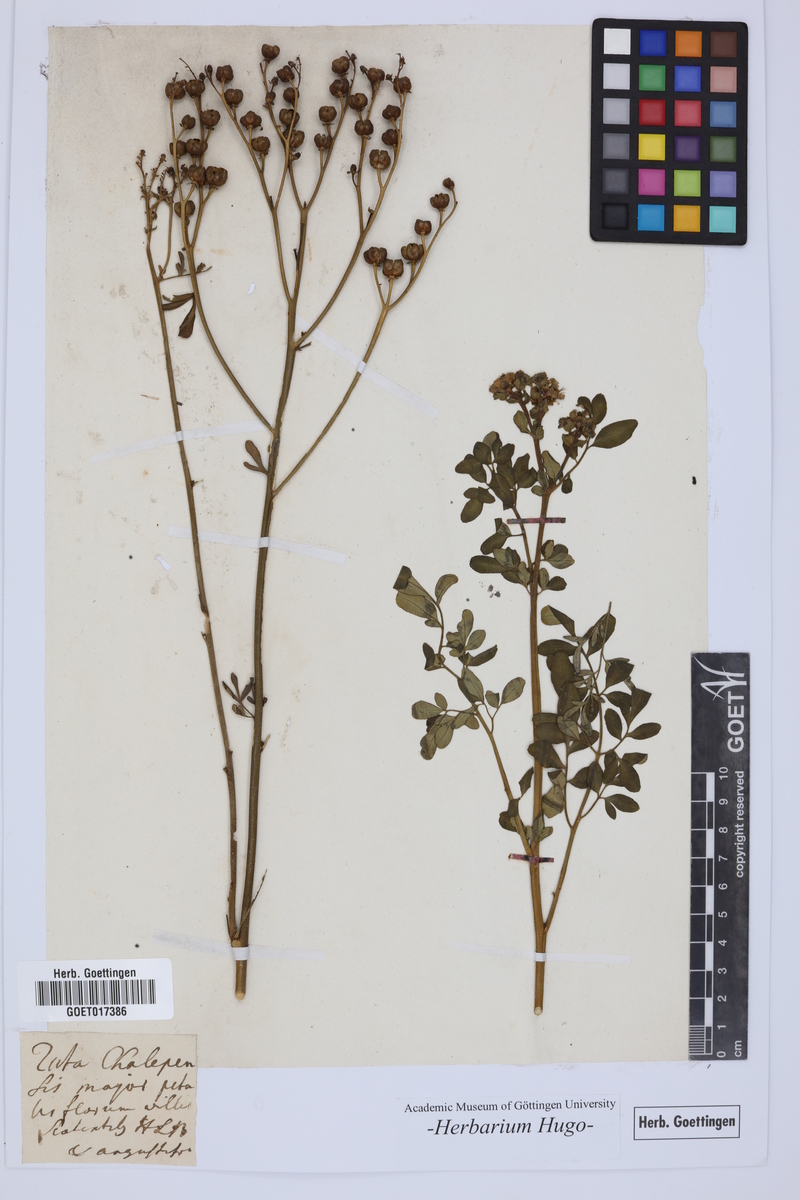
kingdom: Plantae
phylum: Tracheophyta
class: Magnoliopsida
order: Sapindales
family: Rutaceae
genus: Ruta
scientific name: Ruta chalepensis
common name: Fringed rue
